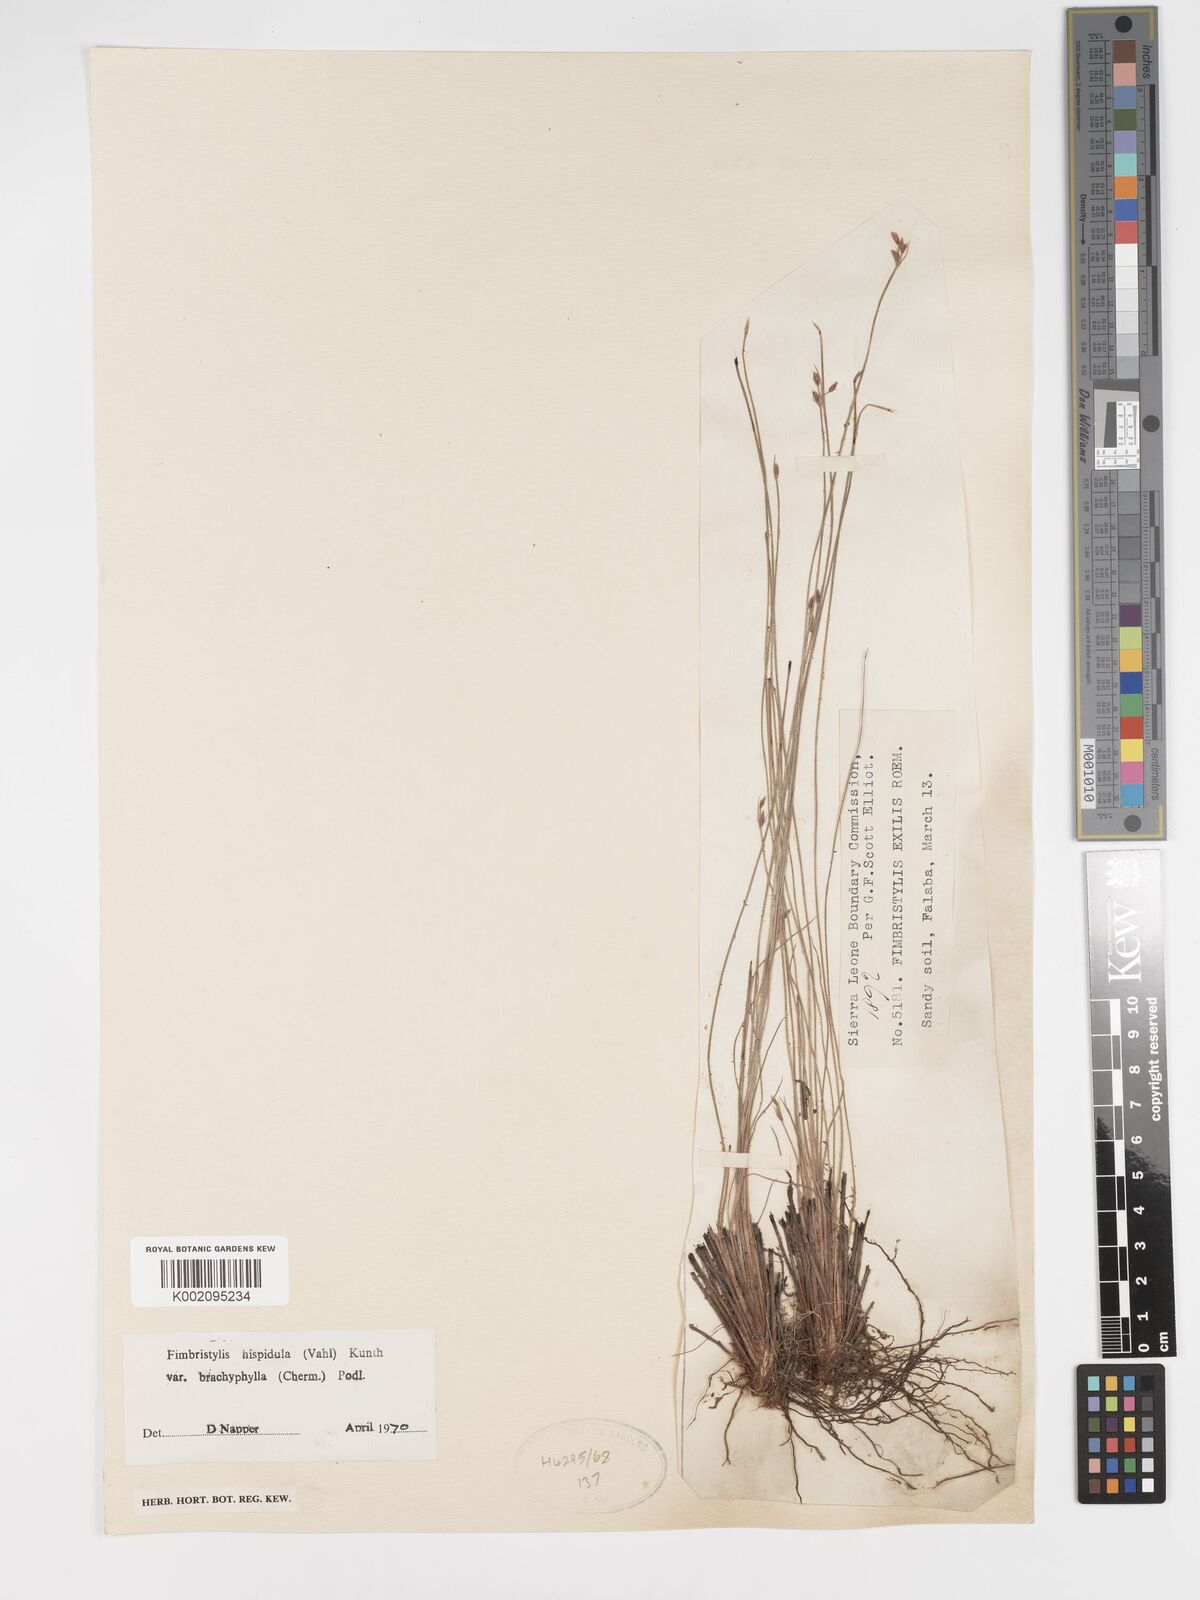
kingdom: Plantae
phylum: Tracheophyta
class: Liliopsida
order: Poales
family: Cyperaceae
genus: Bulbostylis
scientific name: Bulbostylis hispidula
